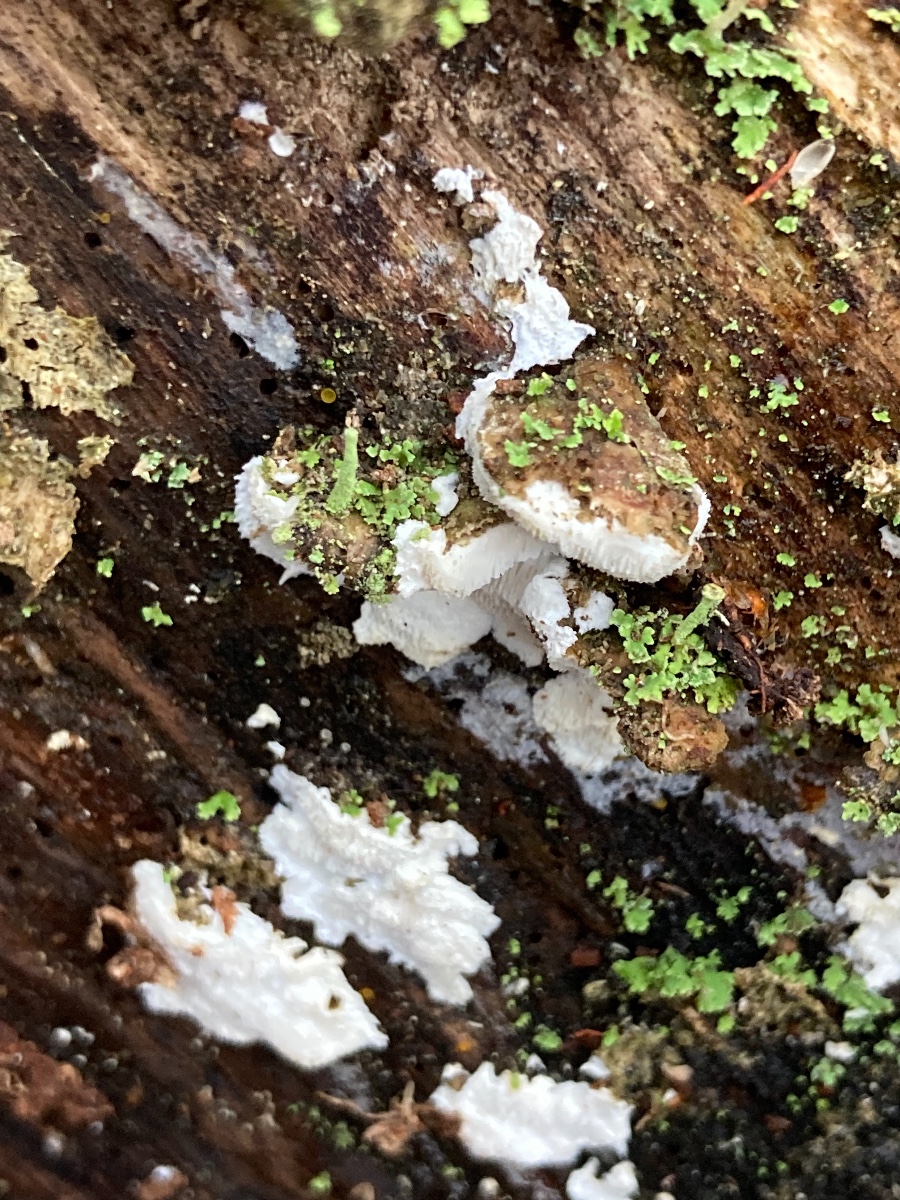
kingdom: Fungi
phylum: Basidiomycota
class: Agaricomycetes
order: Polyporales
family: Gelatoporiaceae
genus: Cinereomyces
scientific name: Cinereomyces lindbladii
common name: almindelig gråporesvamp
